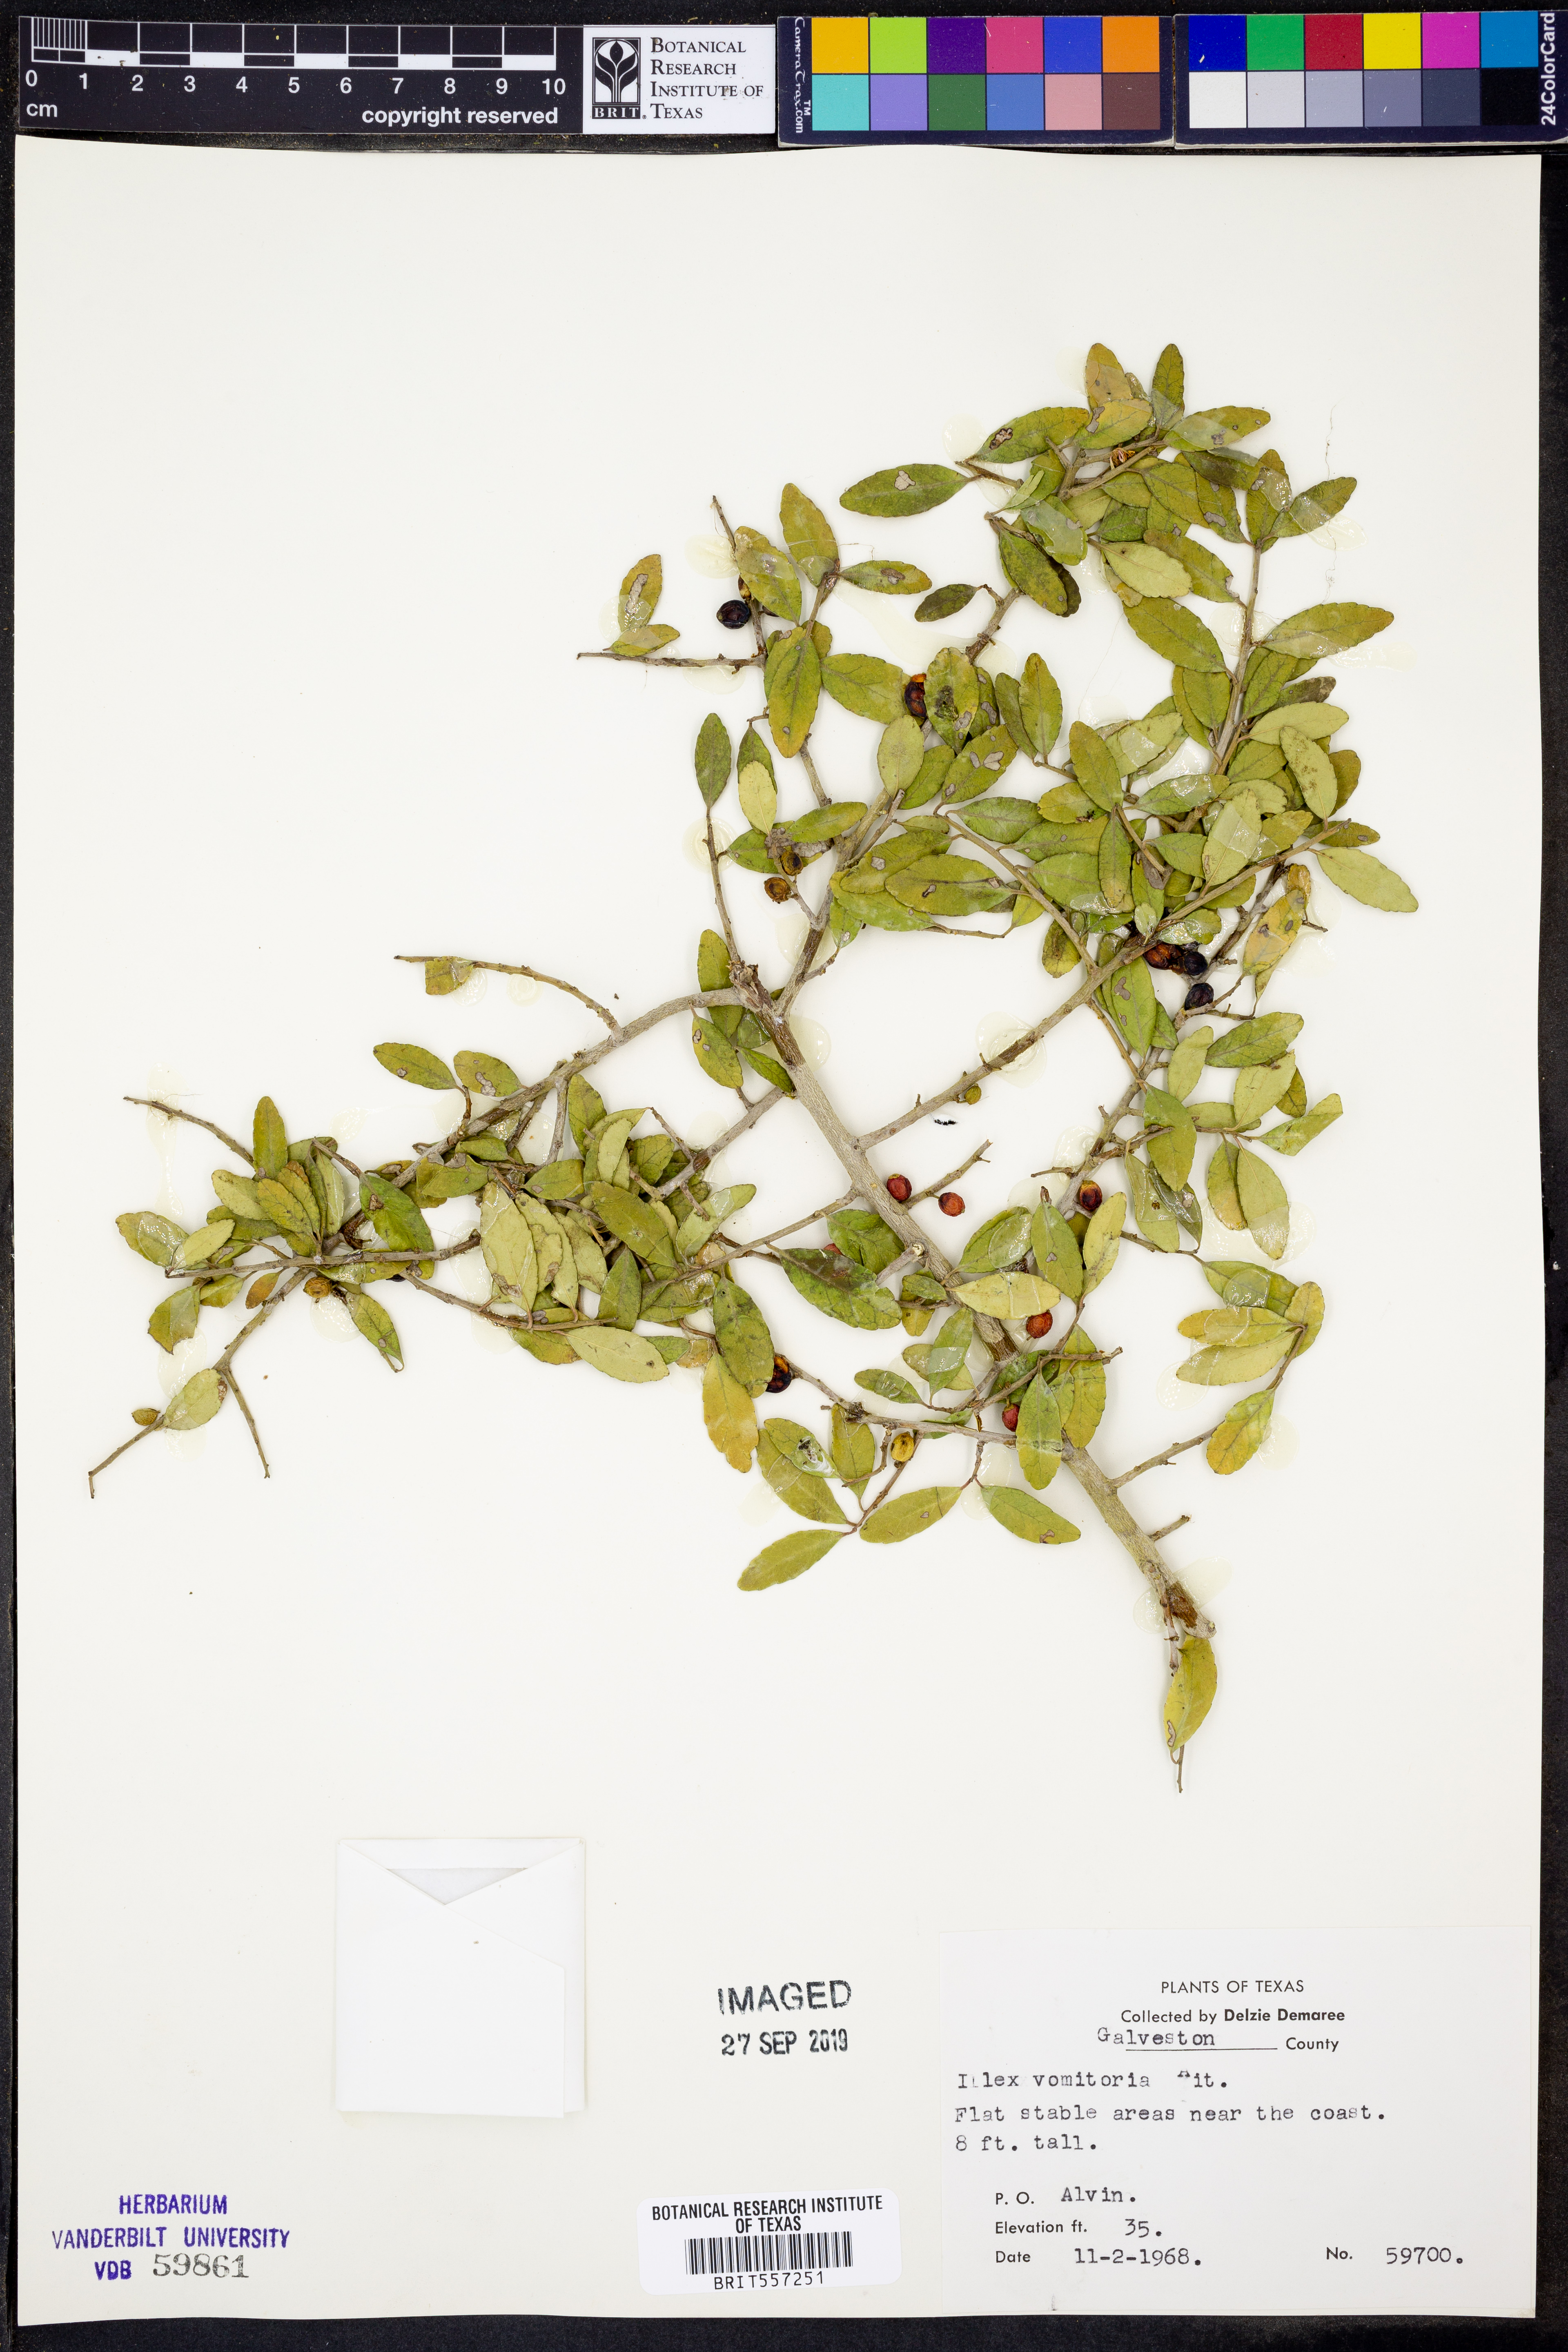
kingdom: Plantae
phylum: Tracheophyta
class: Magnoliopsida
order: Aquifoliales
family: Aquifoliaceae
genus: Ilex
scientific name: Ilex vomitoria
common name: Yaupon holly
